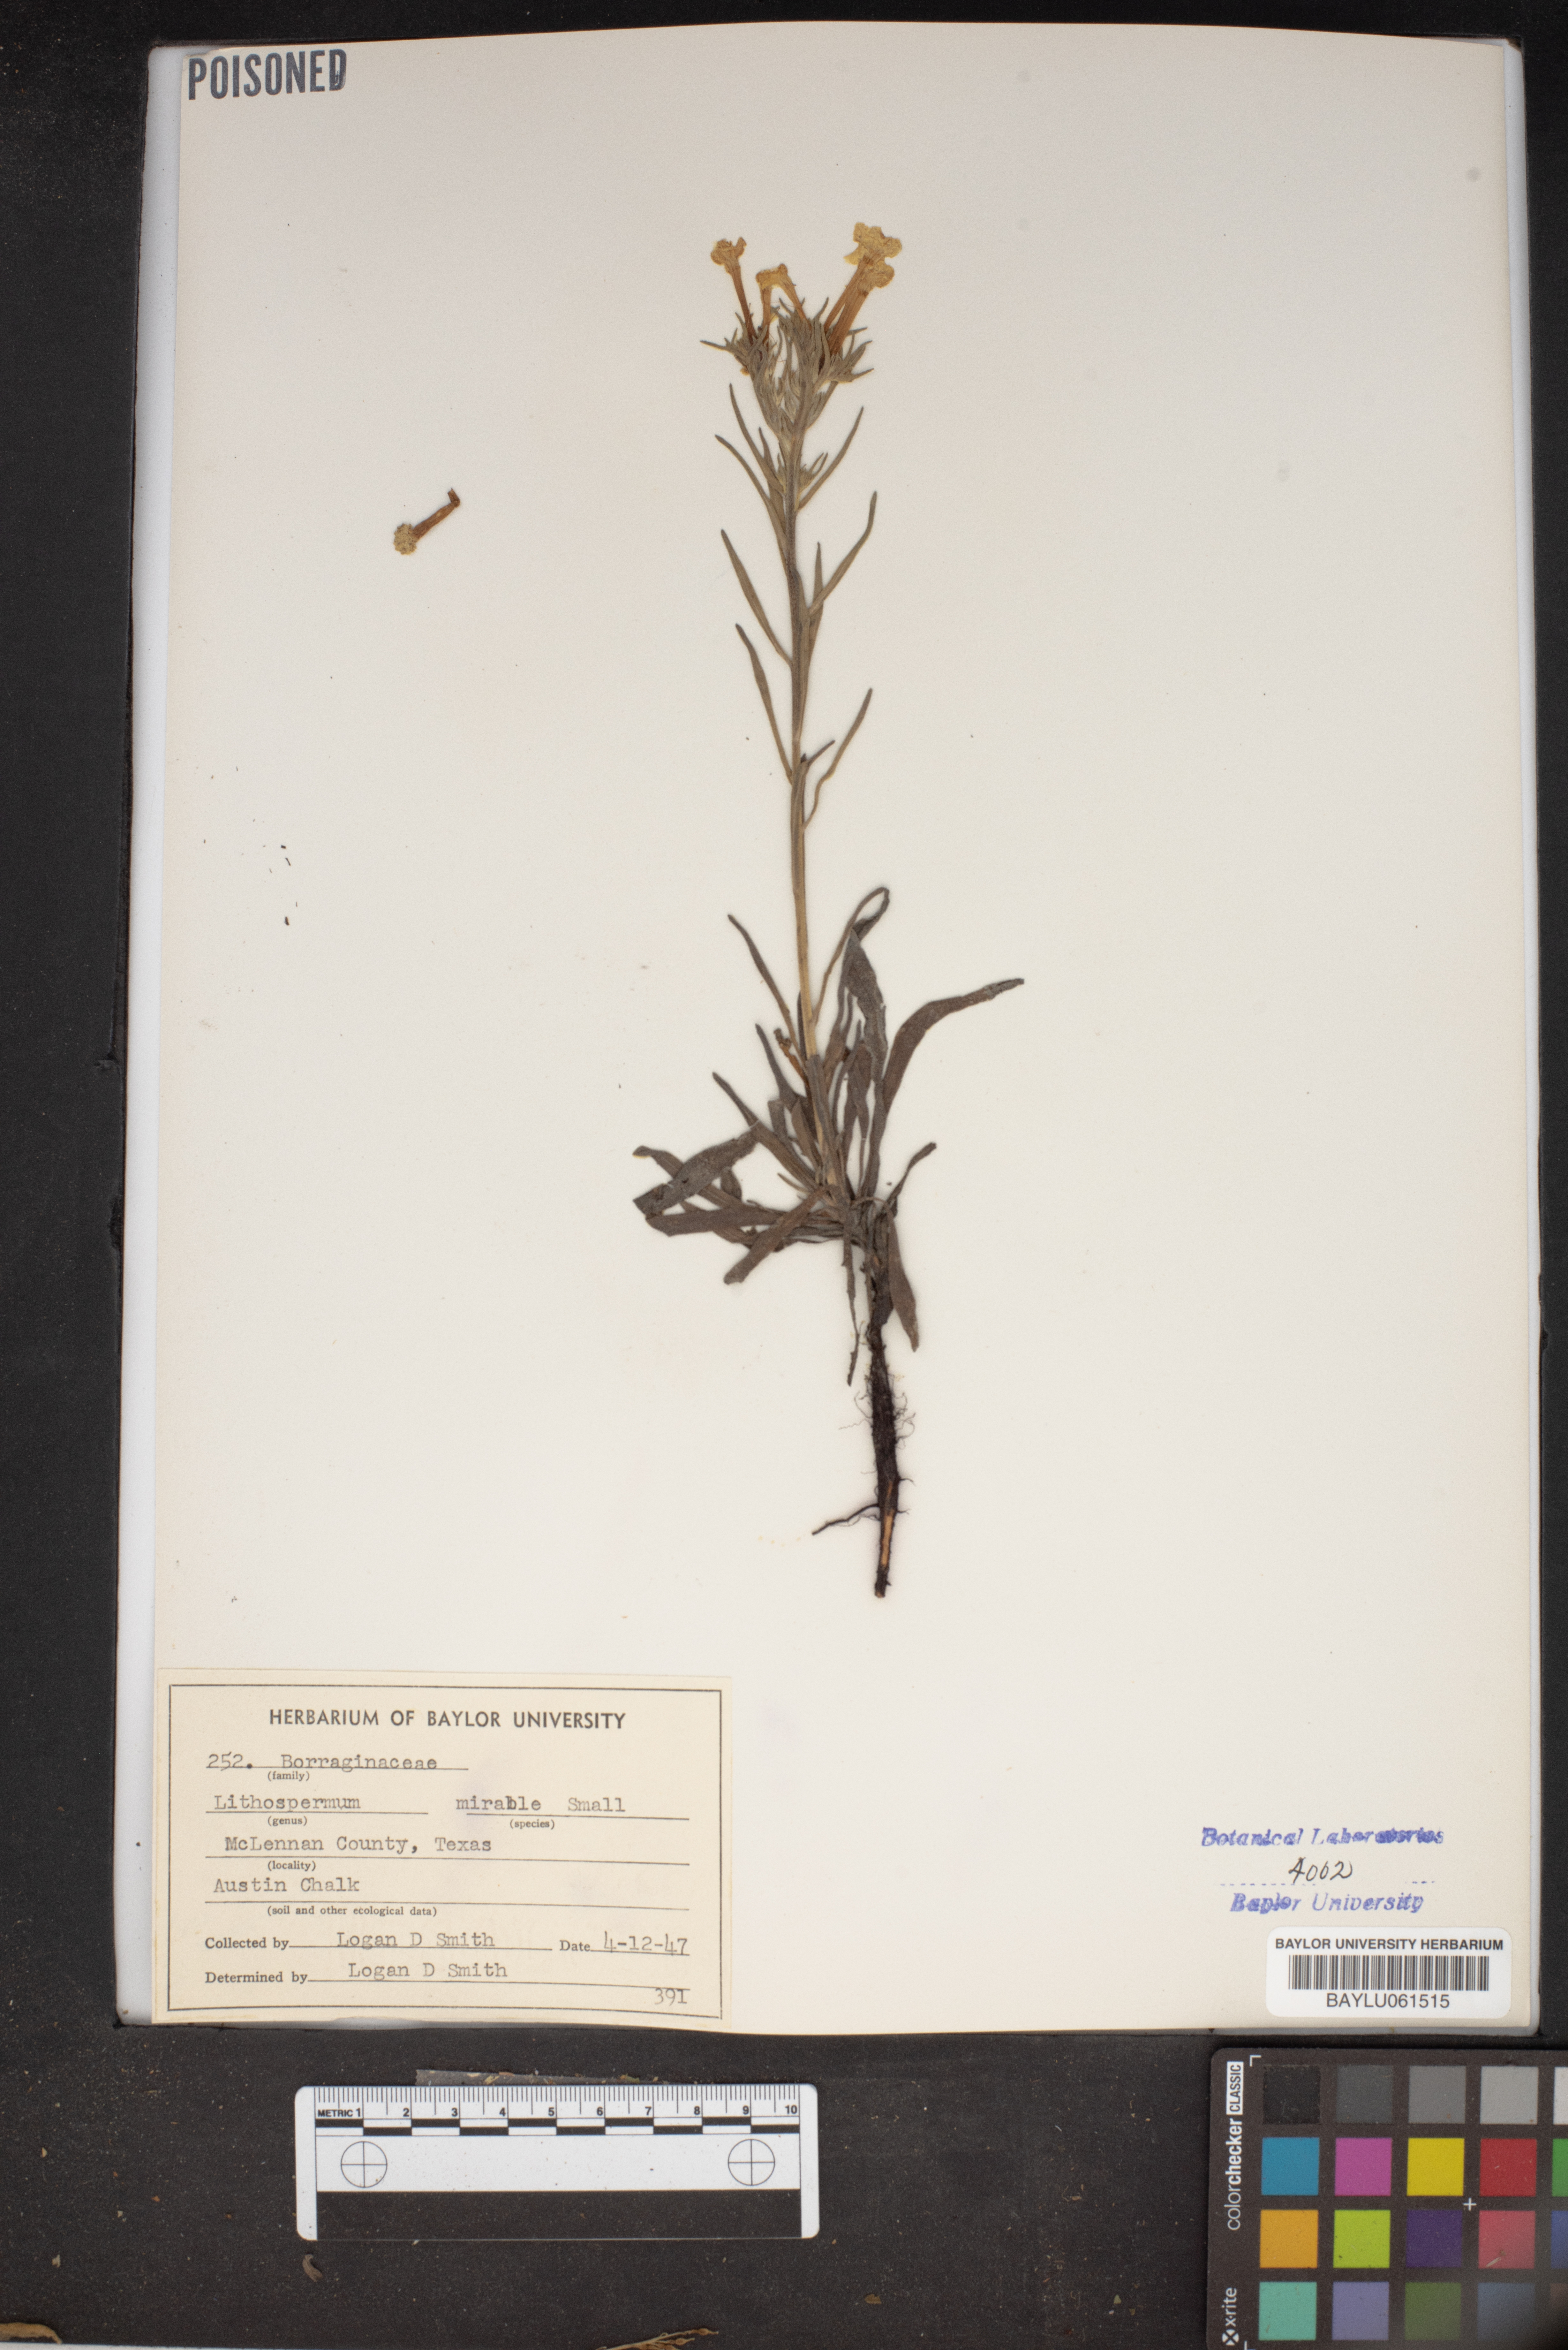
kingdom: Plantae
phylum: Tracheophyta
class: Magnoliopsida
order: Boraginales
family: Boraginaceae
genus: Lithospermum
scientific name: Lithospermum mirabile
